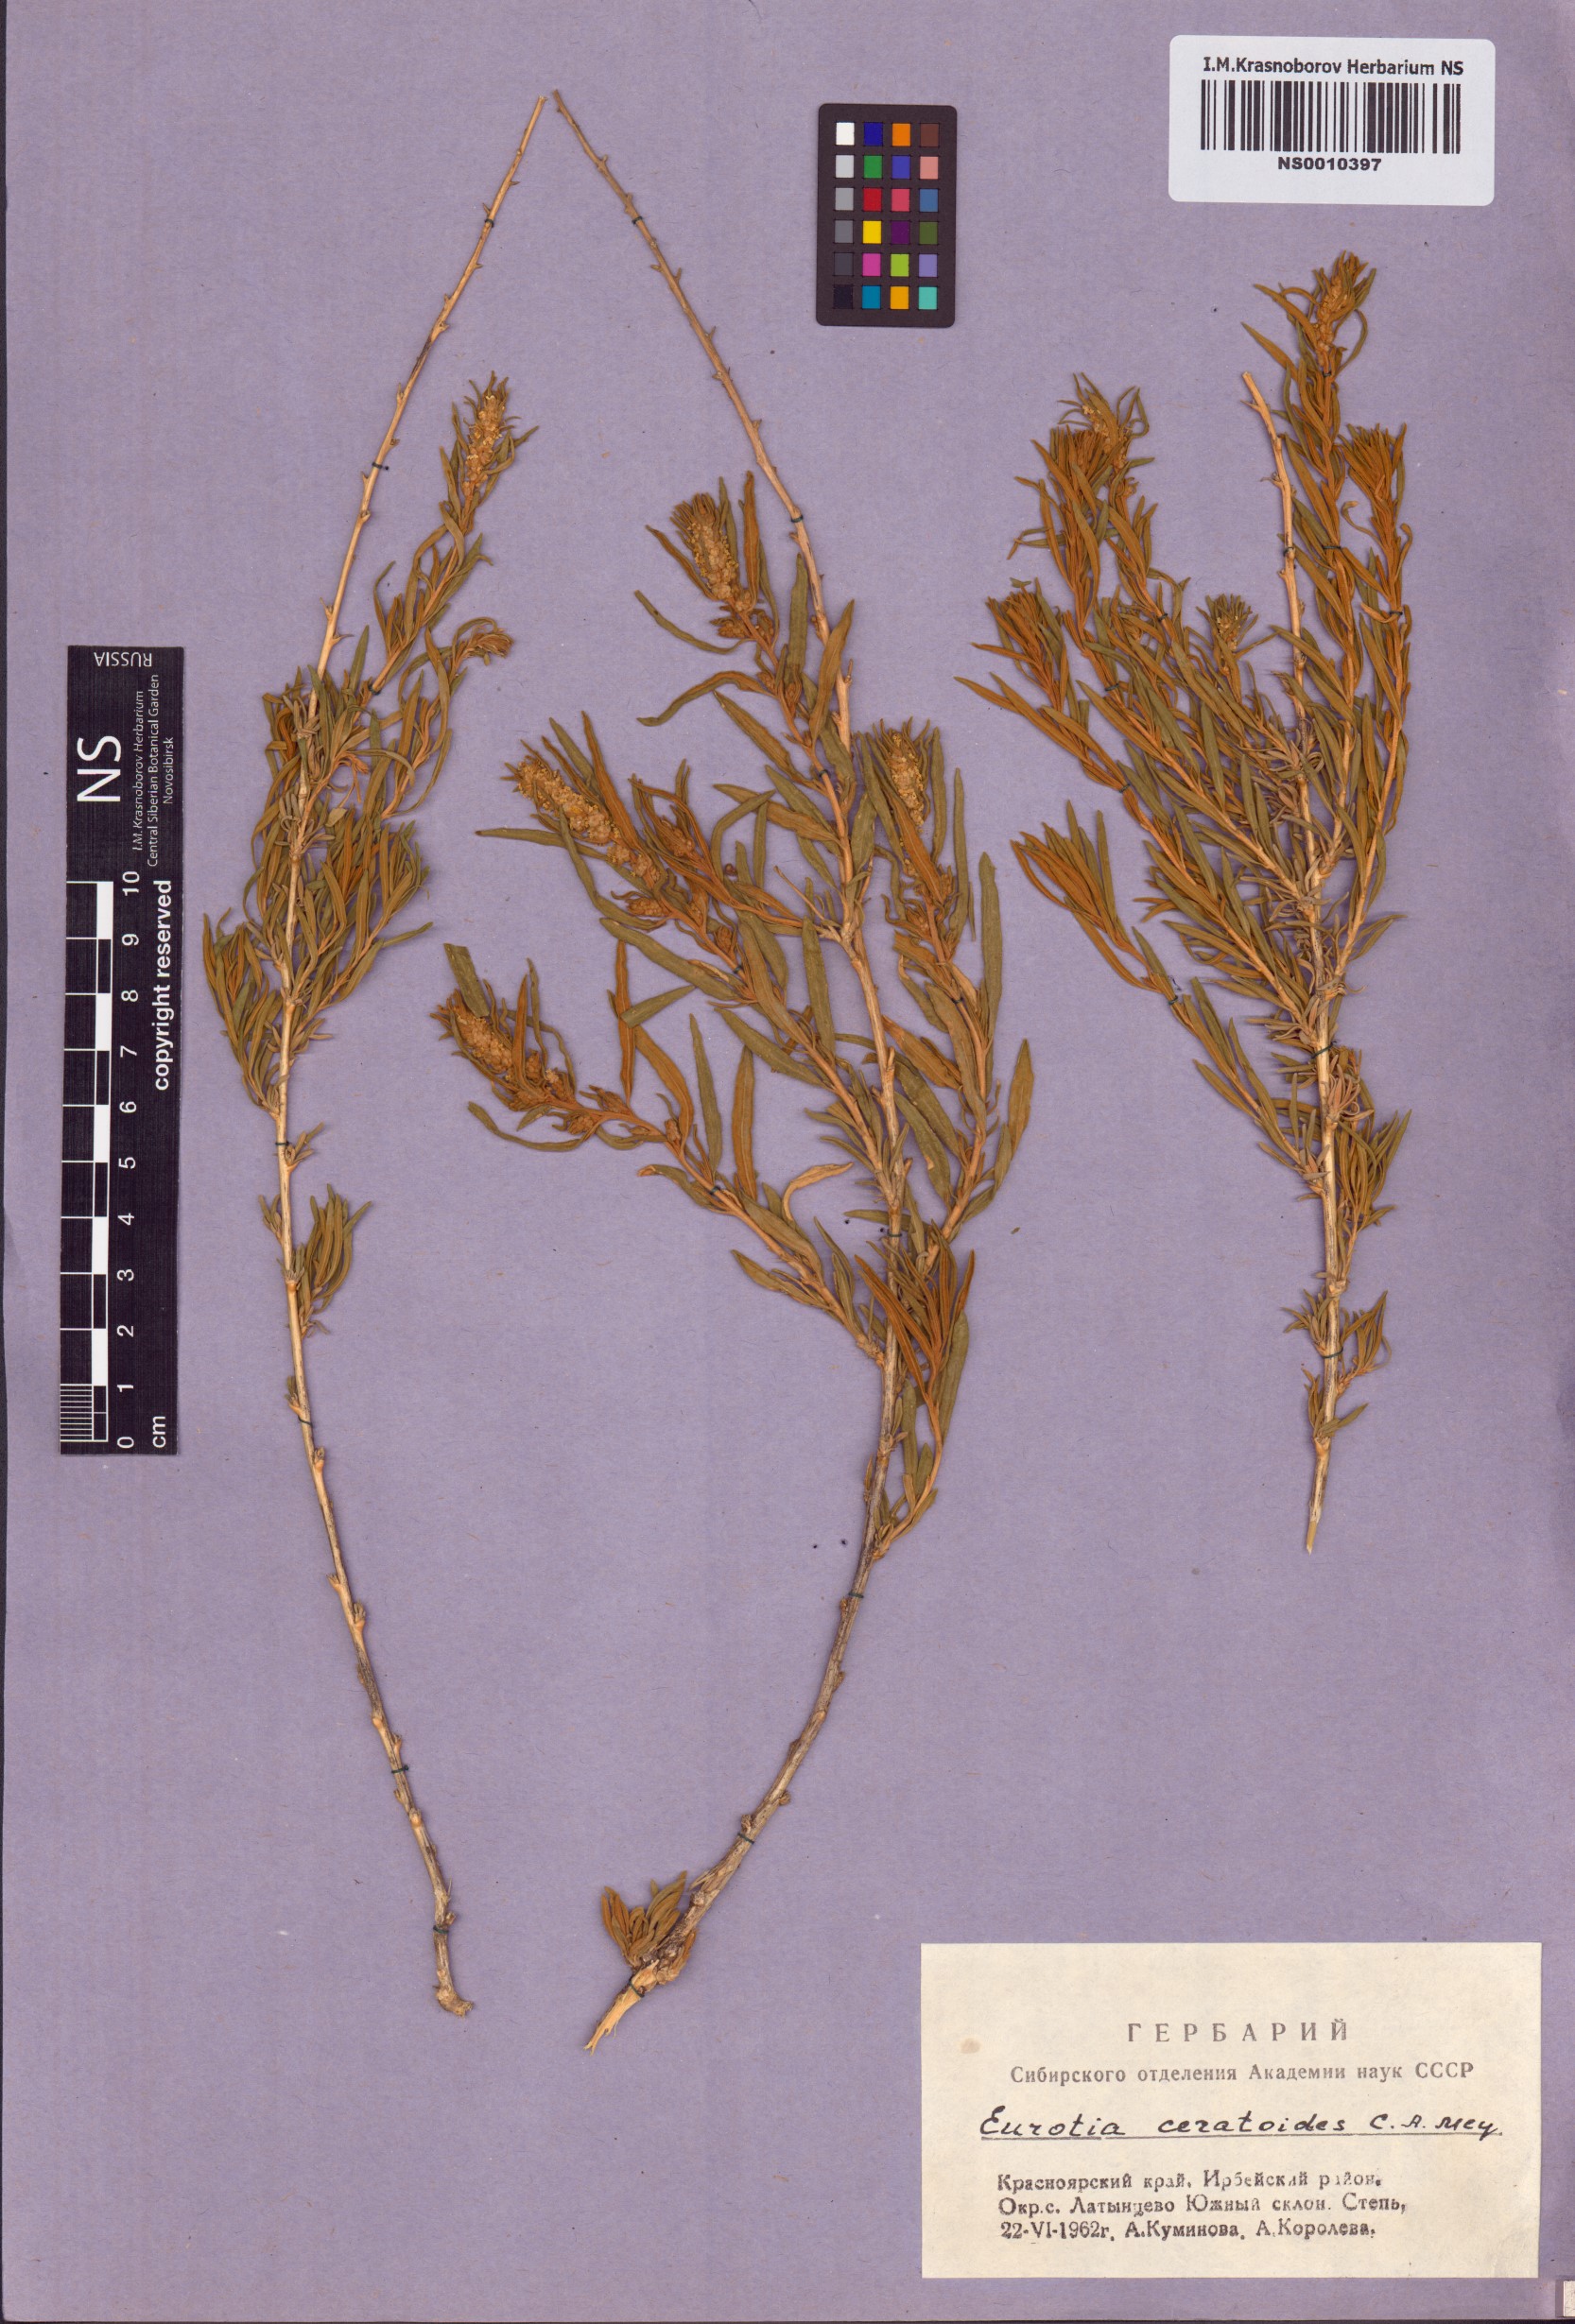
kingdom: Plantae
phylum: Tracheophyta
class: Magnoliopsida
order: Caryophyllales
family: Amaranthaceae
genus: Krascheninnikovia
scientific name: Krascheninnikovia ceratoides
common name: Pamirian winterfat
